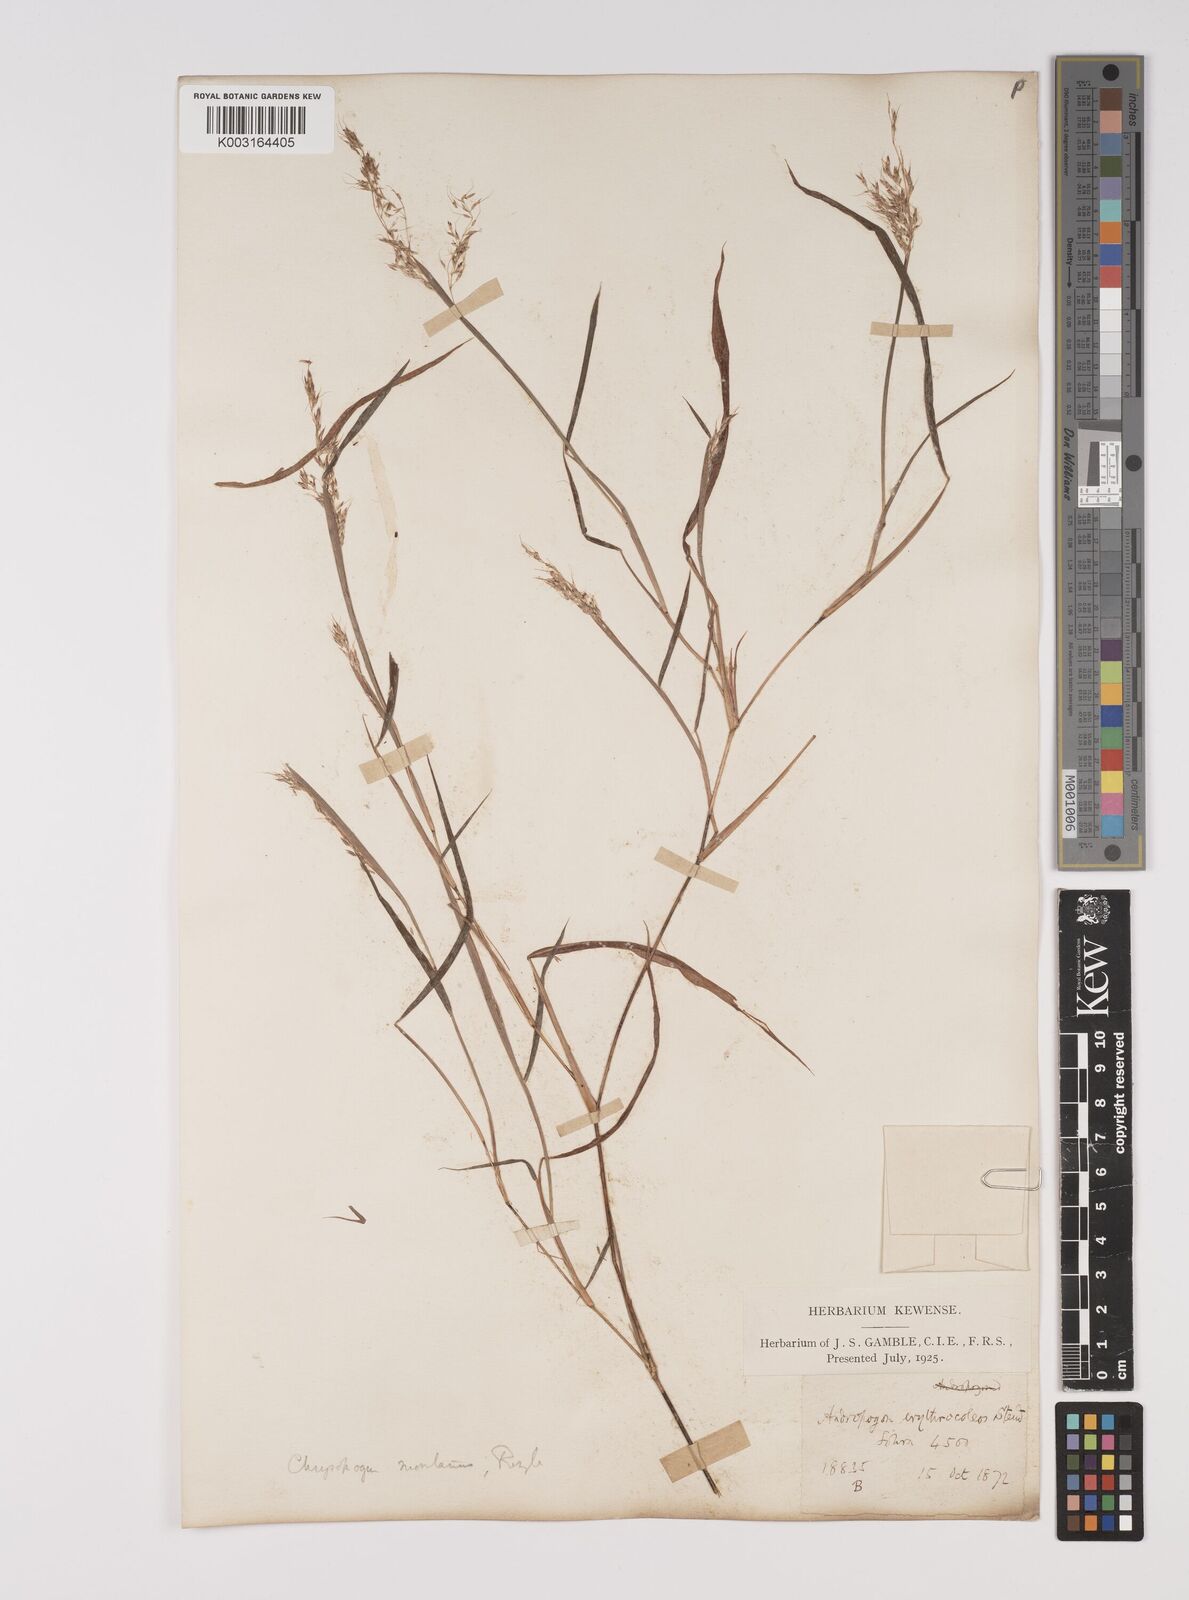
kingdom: Plantae
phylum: Tracheophyta
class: Liliopsida
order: Poales
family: Poaceae
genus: Capillipedium
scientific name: Capillipedium assimile
